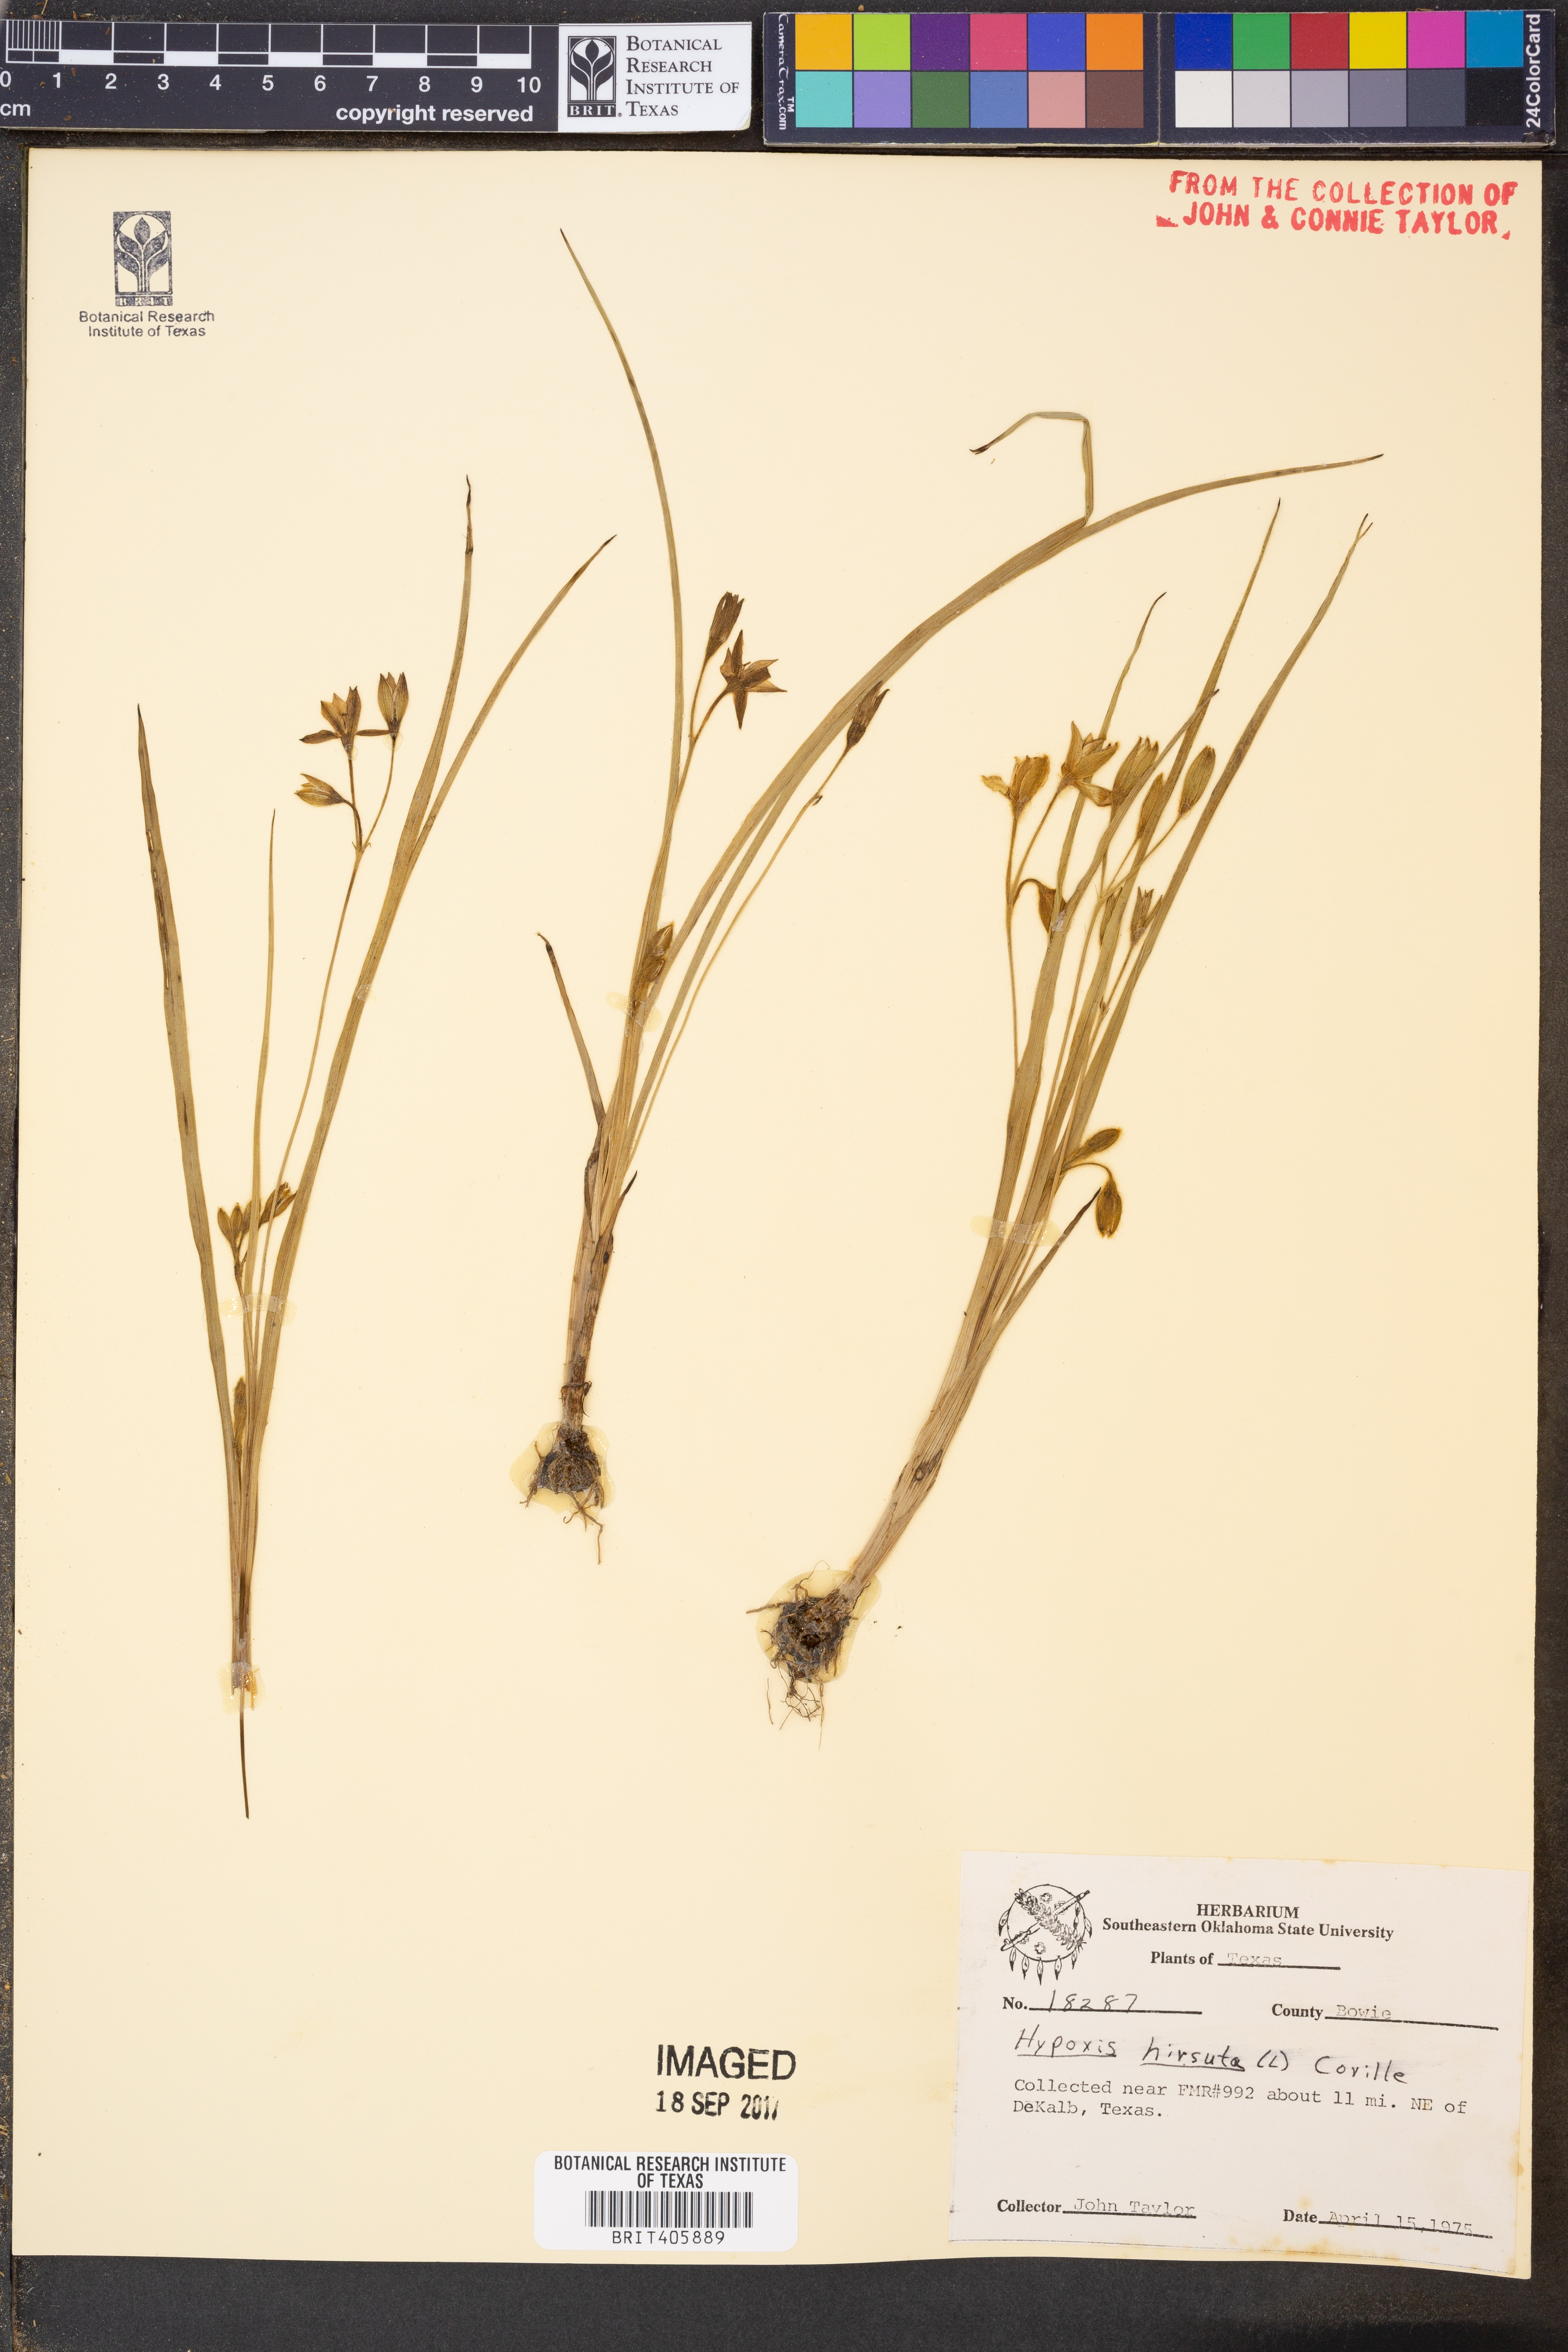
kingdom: Plantae
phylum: Tracheophyta
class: Liliopsida
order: Asparagales
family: Hypoxidaceae
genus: Hypoxis
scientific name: Hypoxis hirsuta
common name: Common goldstar
